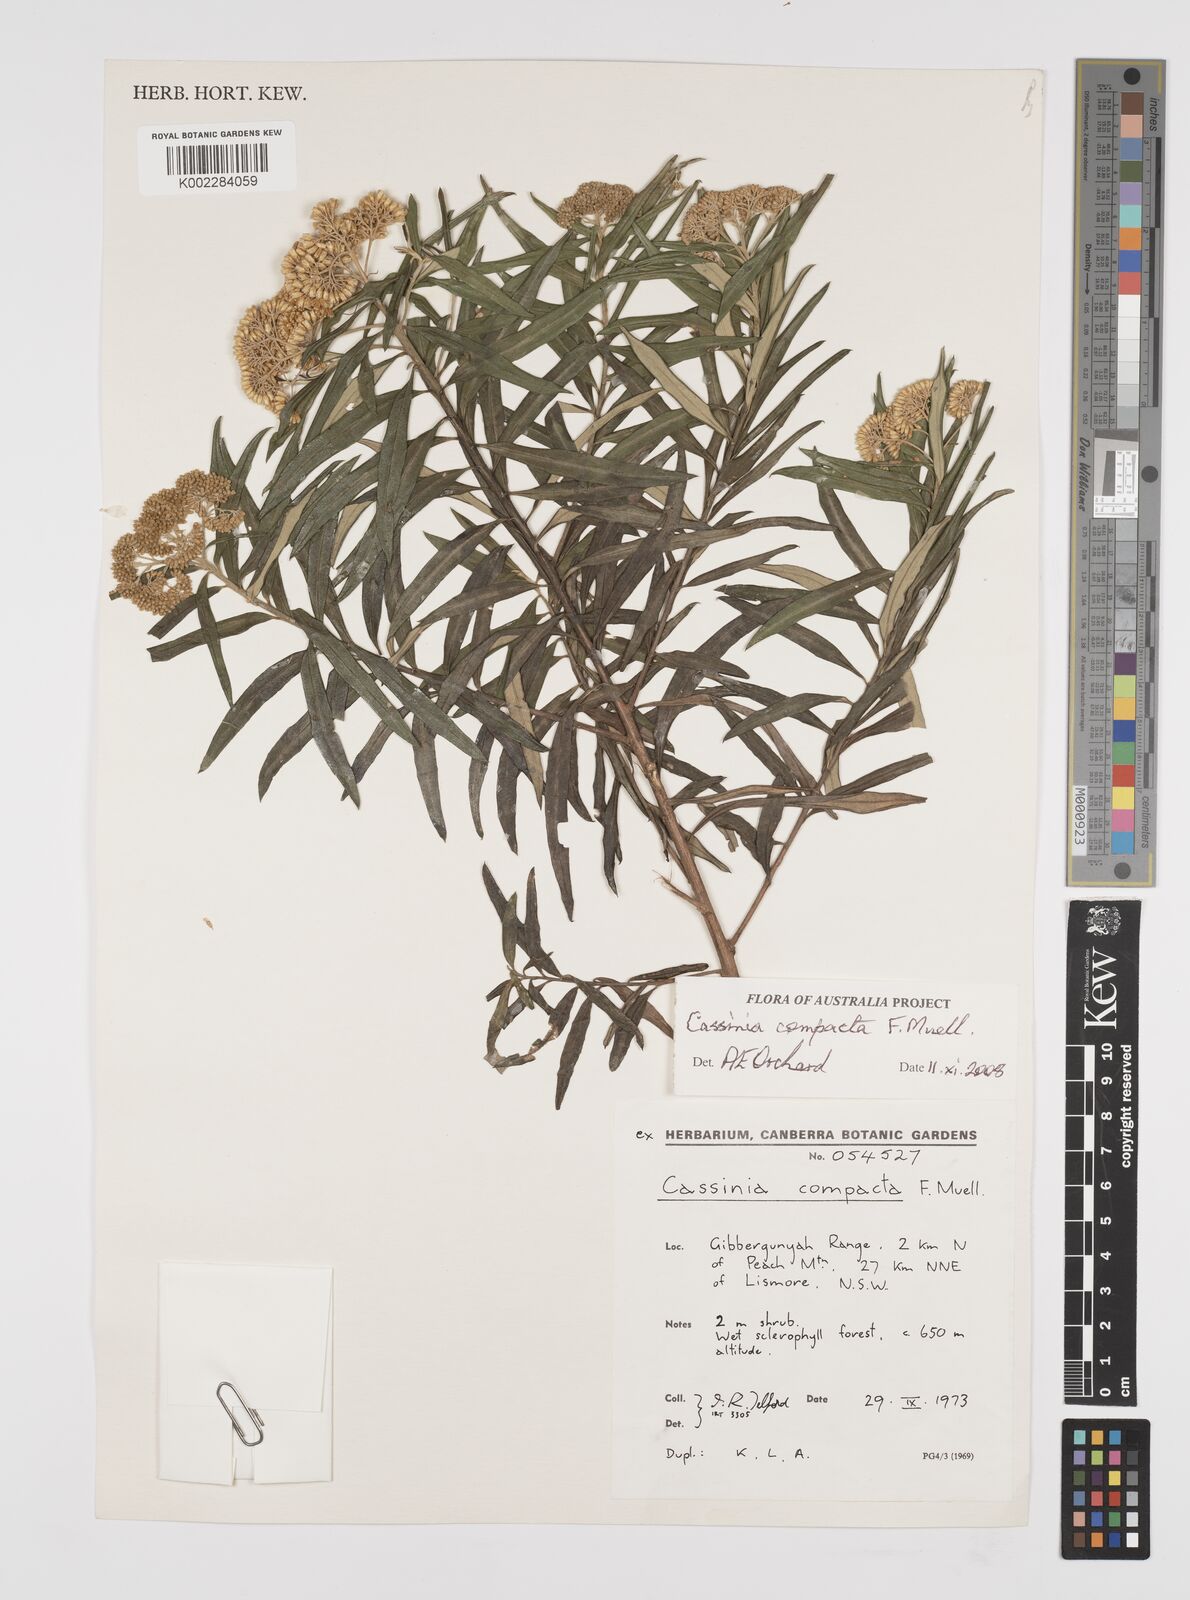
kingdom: Plantae
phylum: Tracheophyta
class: Magnoliopsida
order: Asterales
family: Asteraceae
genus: Cassinia
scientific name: Cassinia compacta
